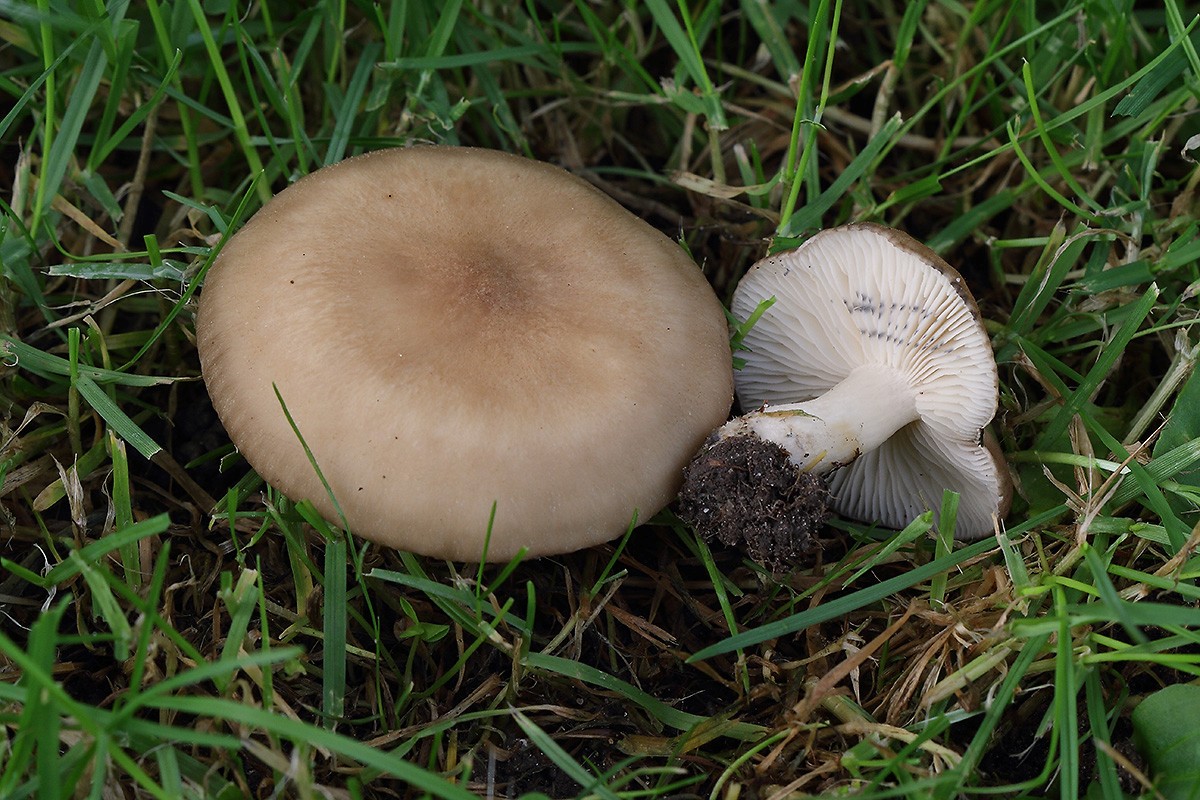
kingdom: Fungi
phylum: Basidiomycota
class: Agaricomycetes
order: Agaricales
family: Lyophyllaceae
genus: Lyophyllum
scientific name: Lyophyllum paelochroum
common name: blånende gråblad
